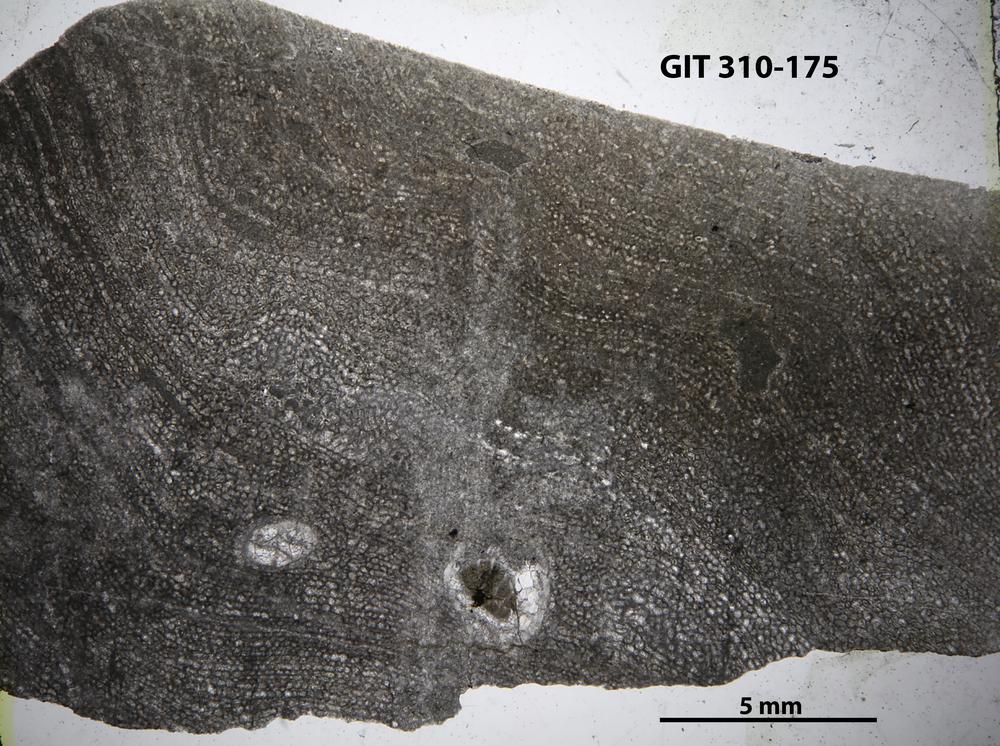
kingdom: Animalia
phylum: Porifera
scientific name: Porifera
